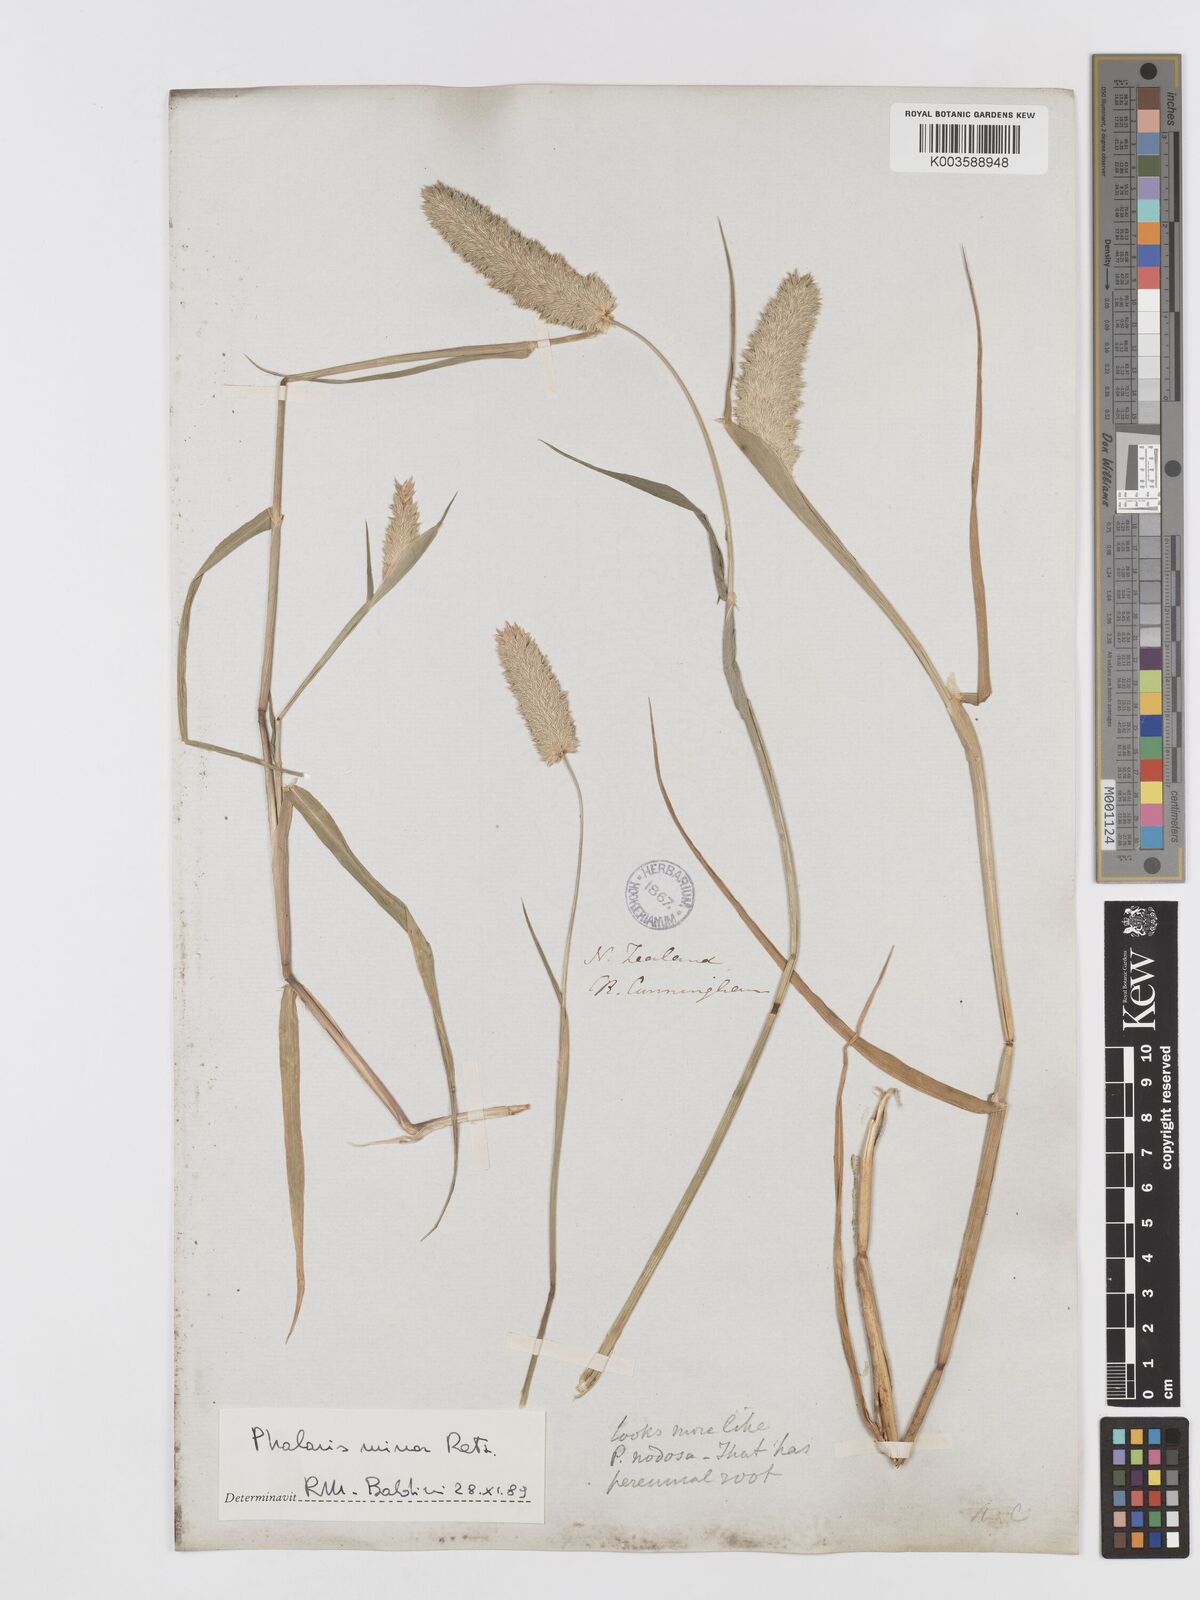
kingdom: Plantae
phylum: Tracheophyta
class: Liliopsida
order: Poales
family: Poaceae
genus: Phalaris
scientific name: Phalaris minor
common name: Littleseed canarygrass
